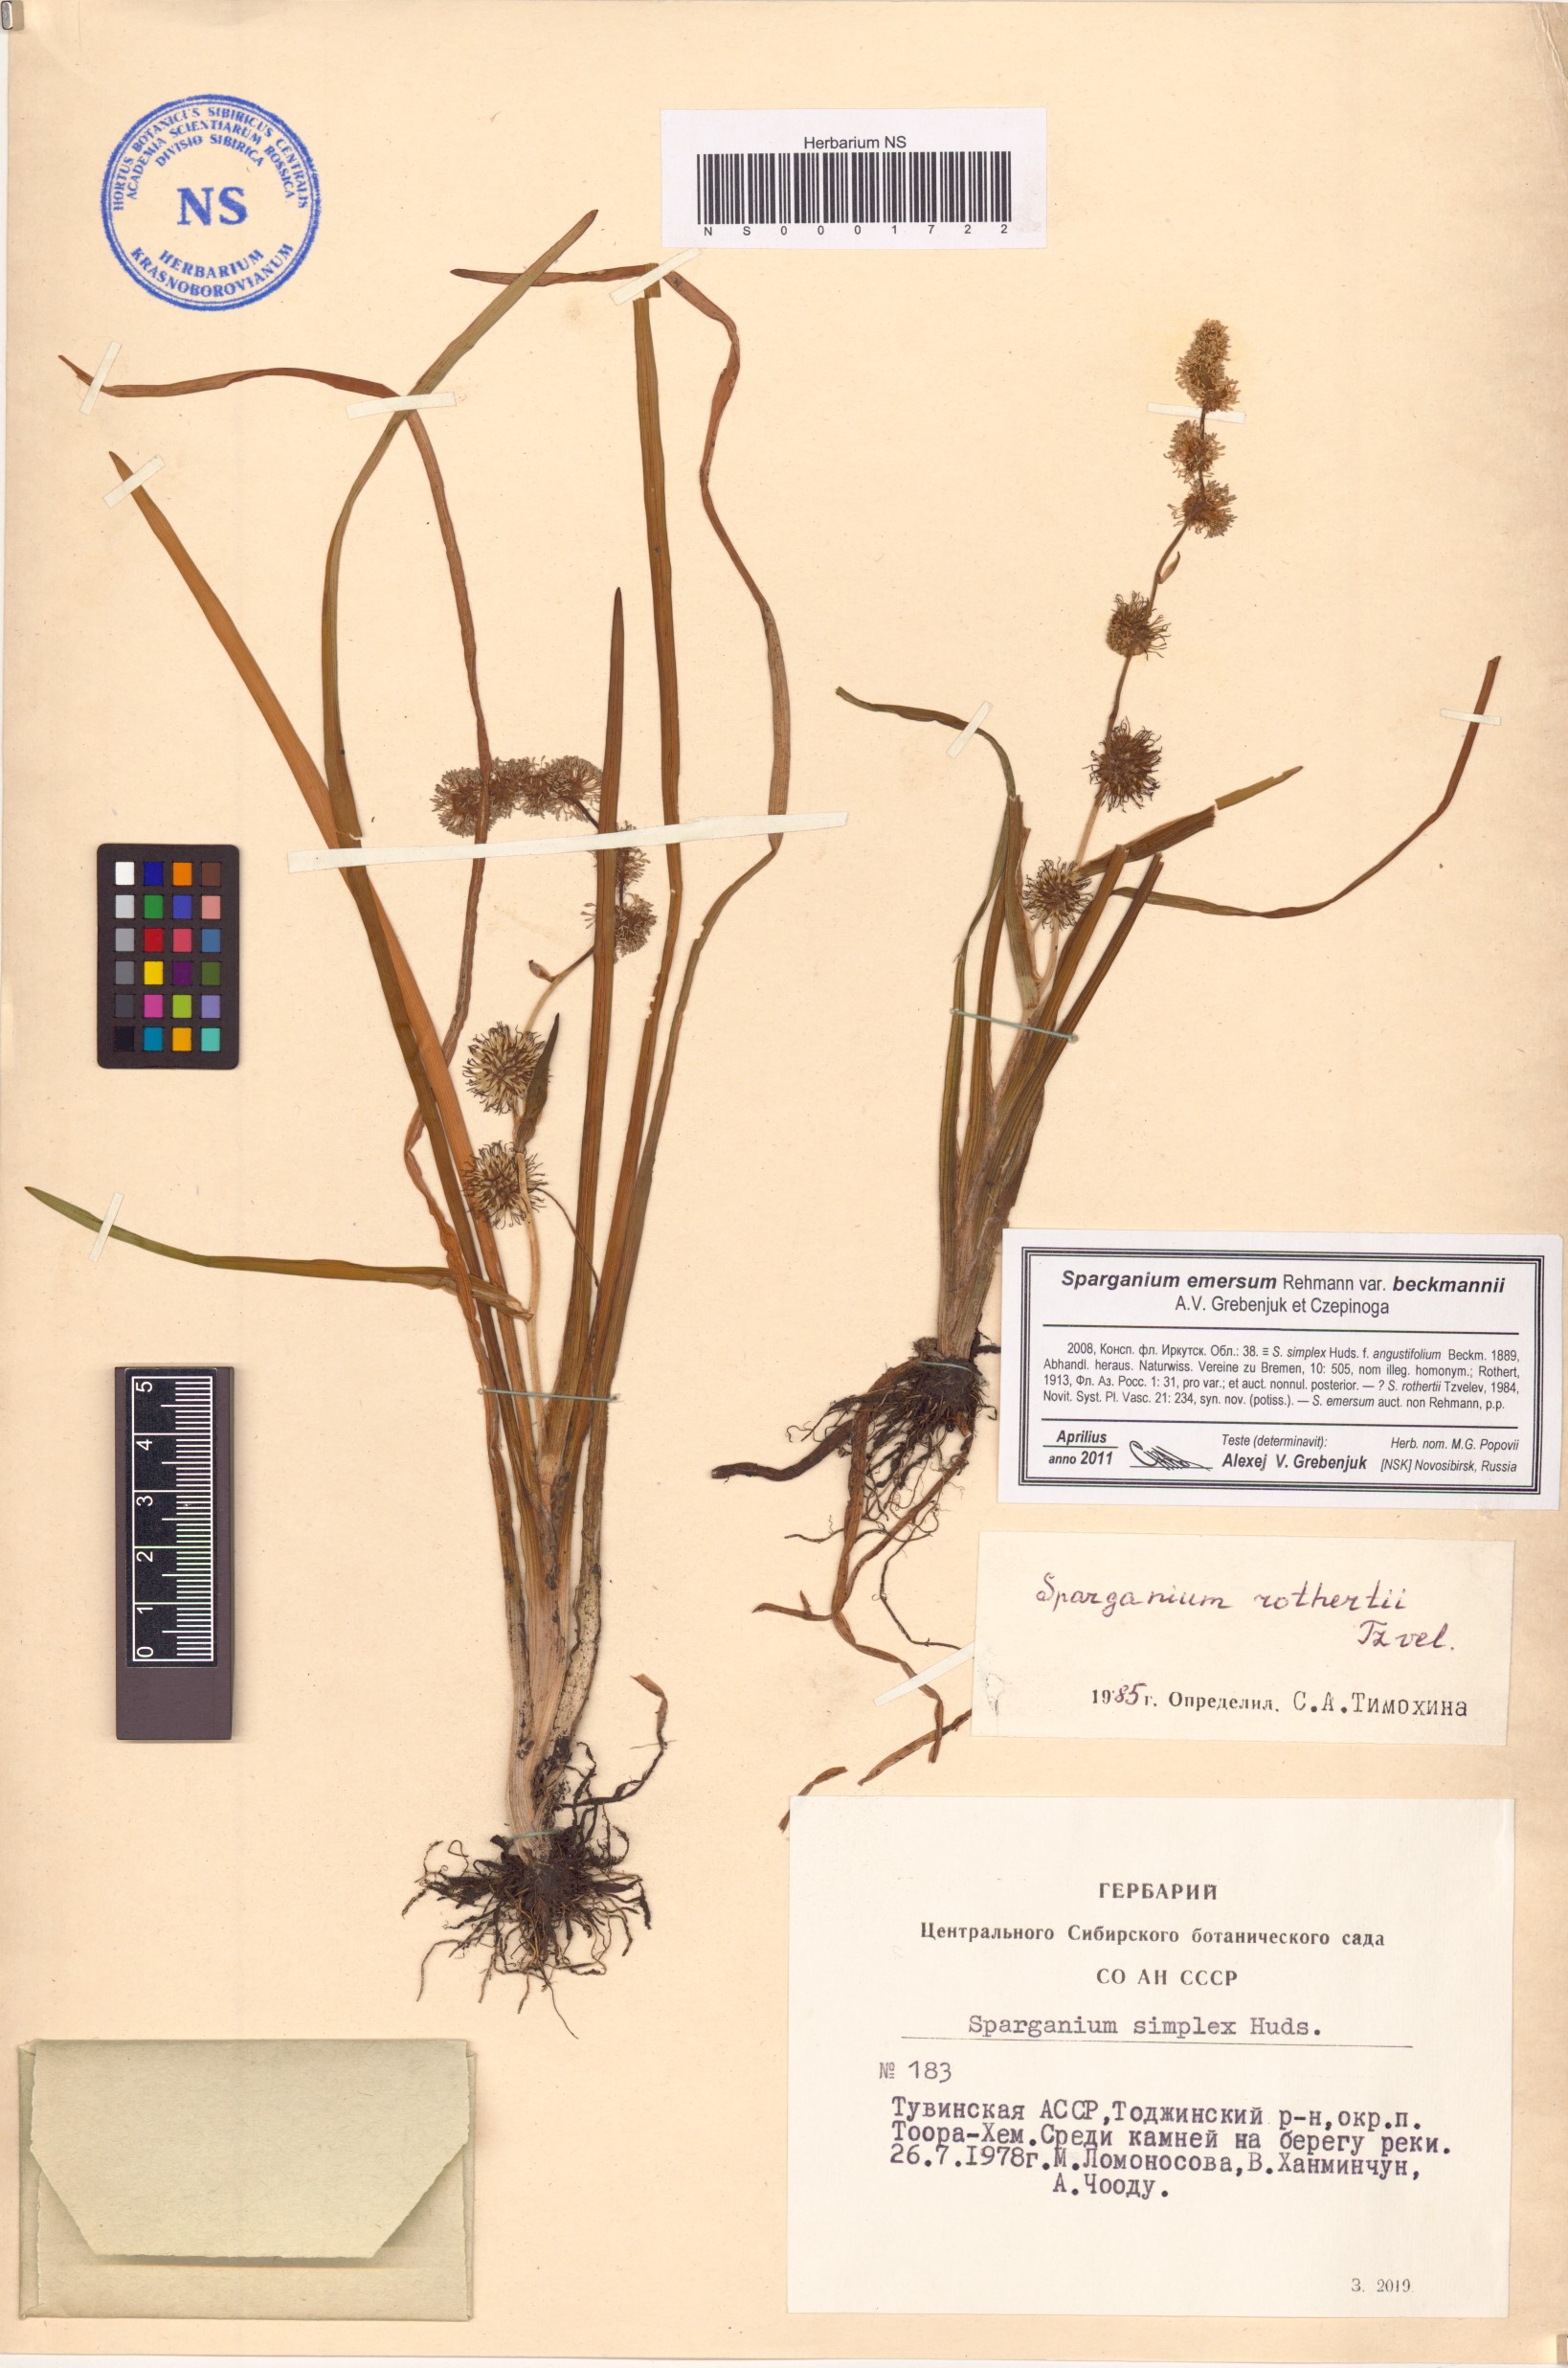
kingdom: Plantae
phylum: Tracheophyta
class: Liliopsida
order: Poales
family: Typhaceae
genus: Sparganium
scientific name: Sparganium emersum
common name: Unbranched bur-reed
